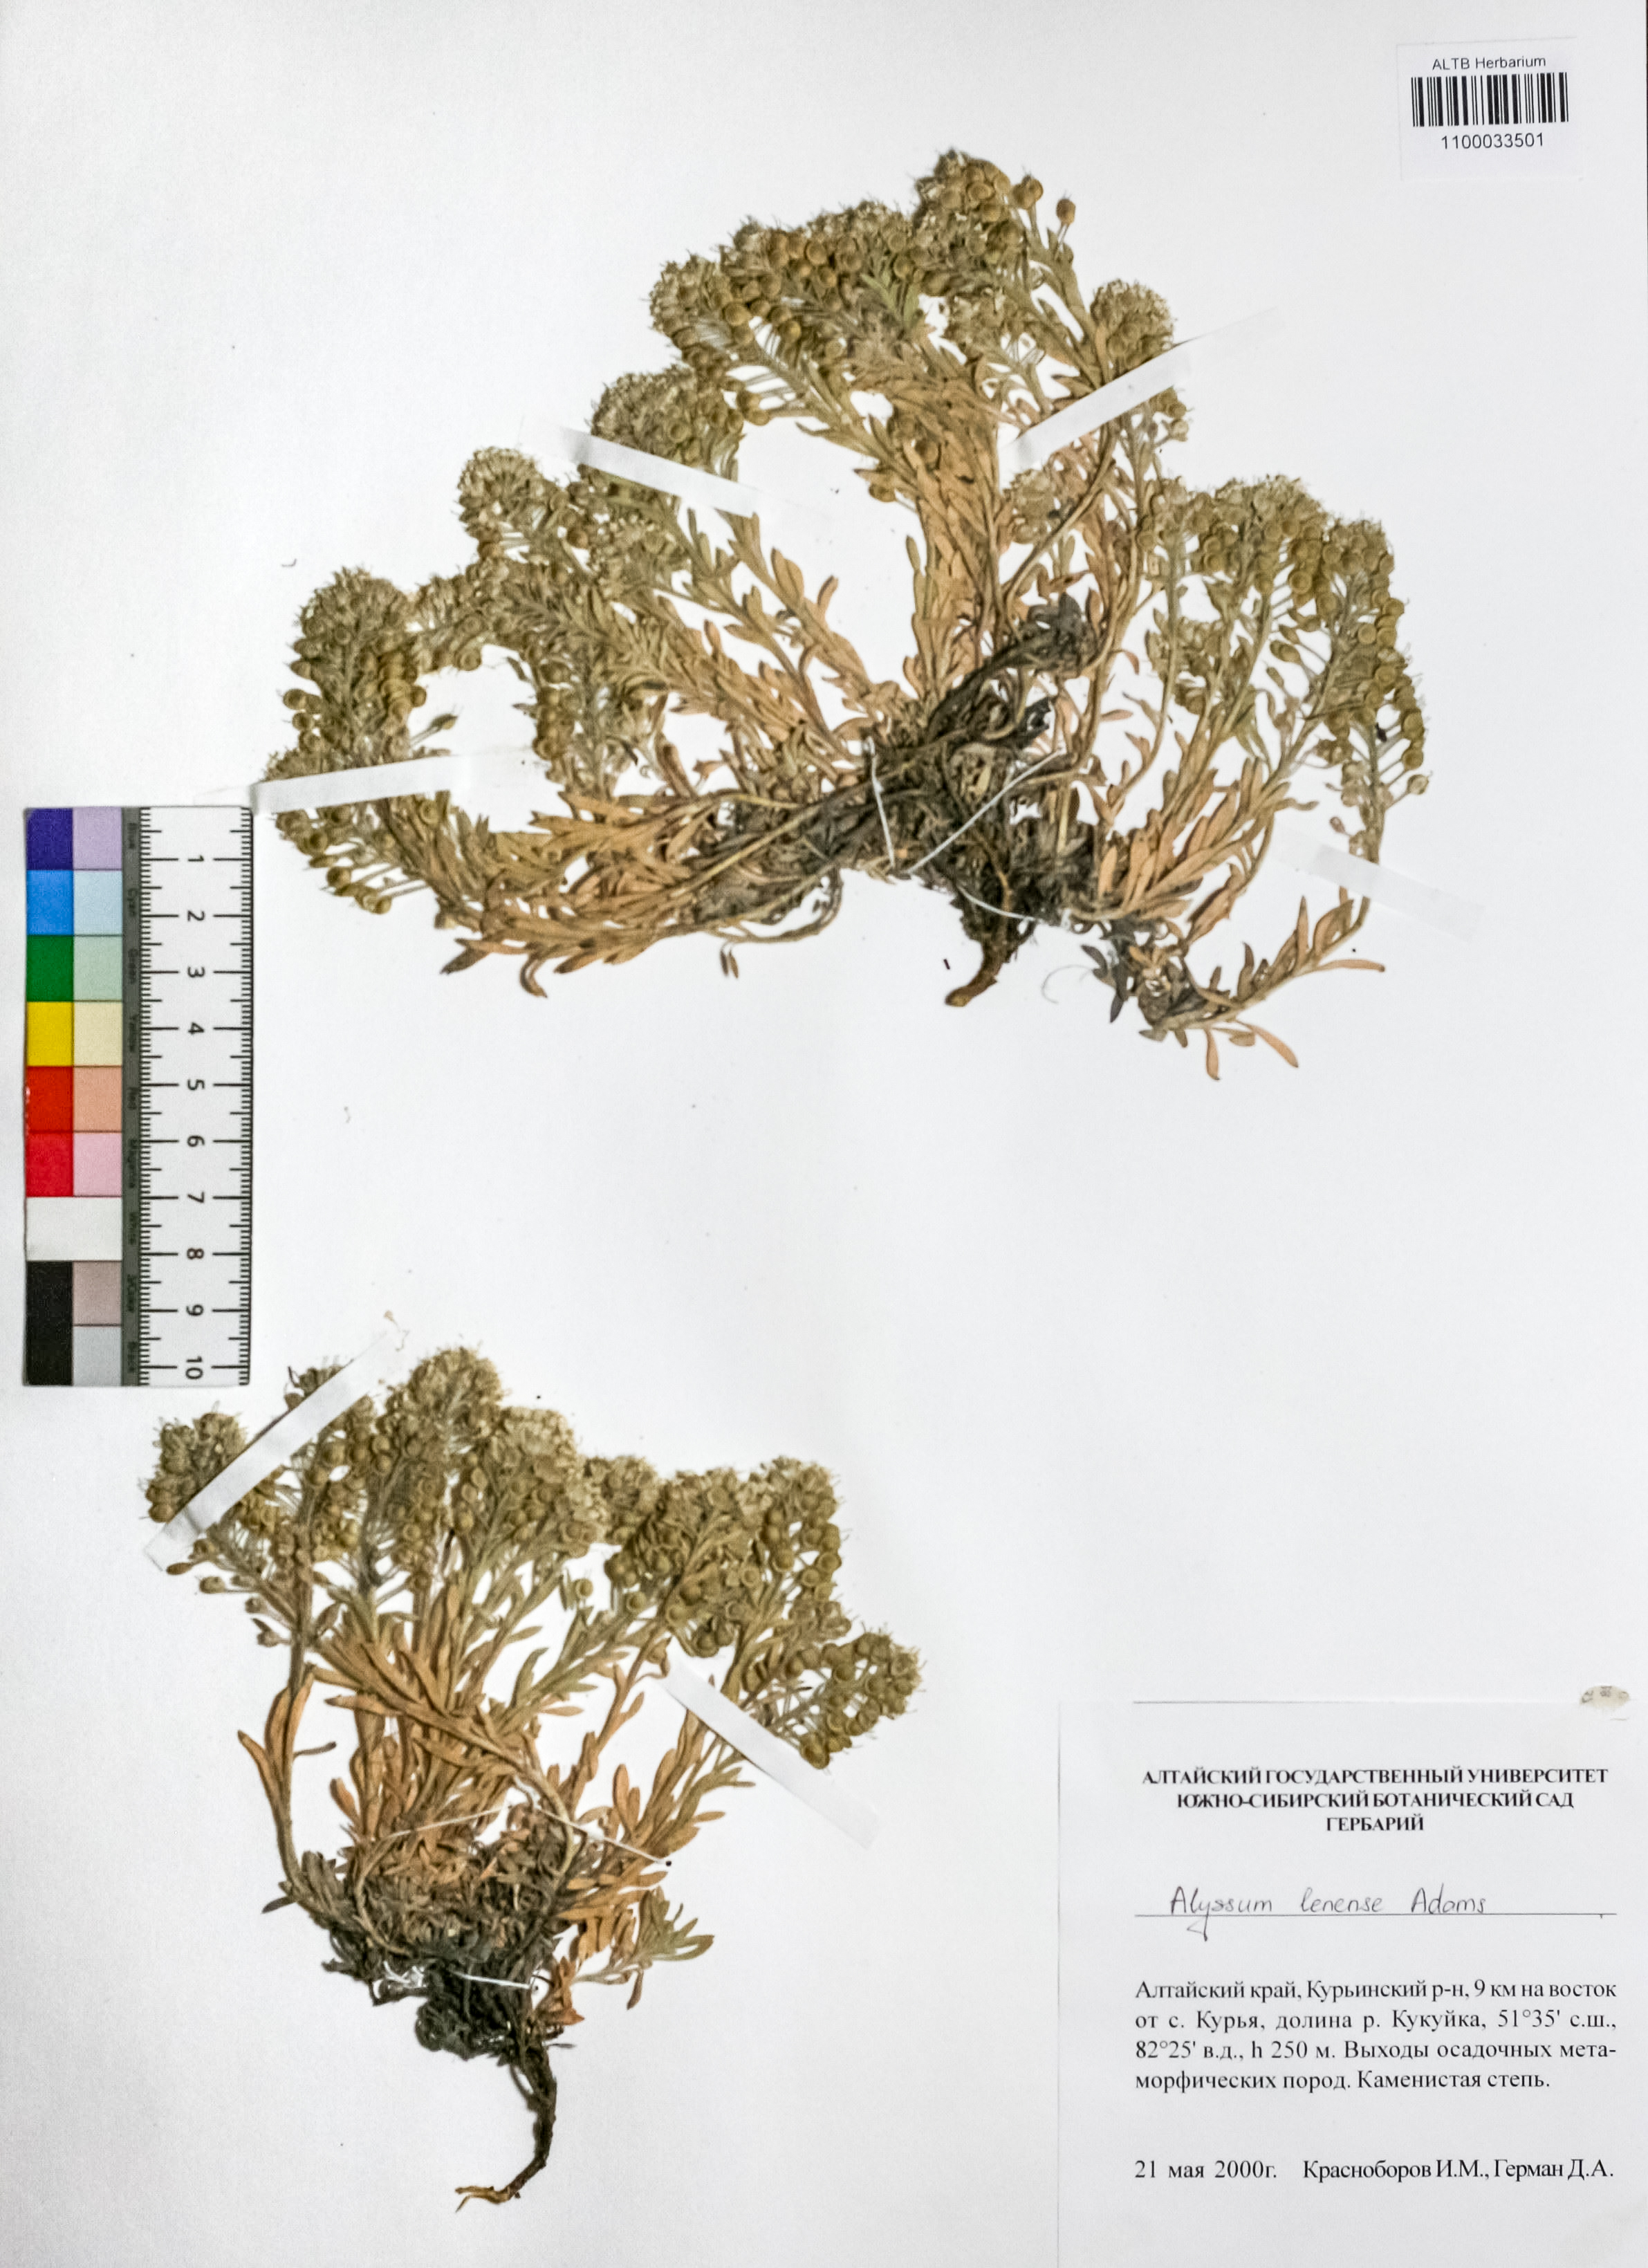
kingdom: Plantae
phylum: Tracheophyta
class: Magnoliopsida
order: Brassicales
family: Brassicaceae
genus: Alyssum
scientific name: Alyssum lenense
